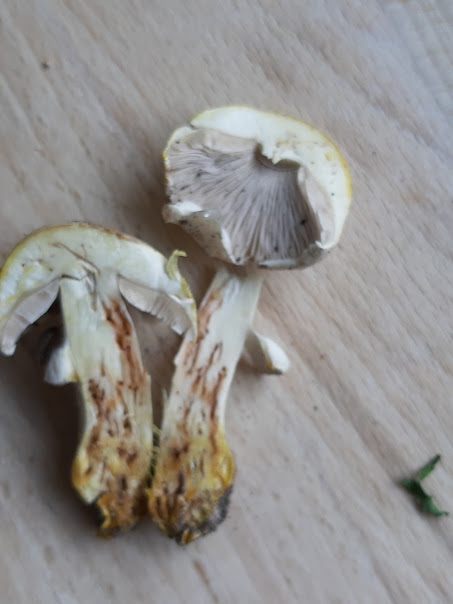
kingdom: Fungi
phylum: Basidiomycota
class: Agaricomycetes
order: Agaricales
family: Agaricaceae
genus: Agaricus
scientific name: Agaricus xanthodermus
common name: karbol-champignon
